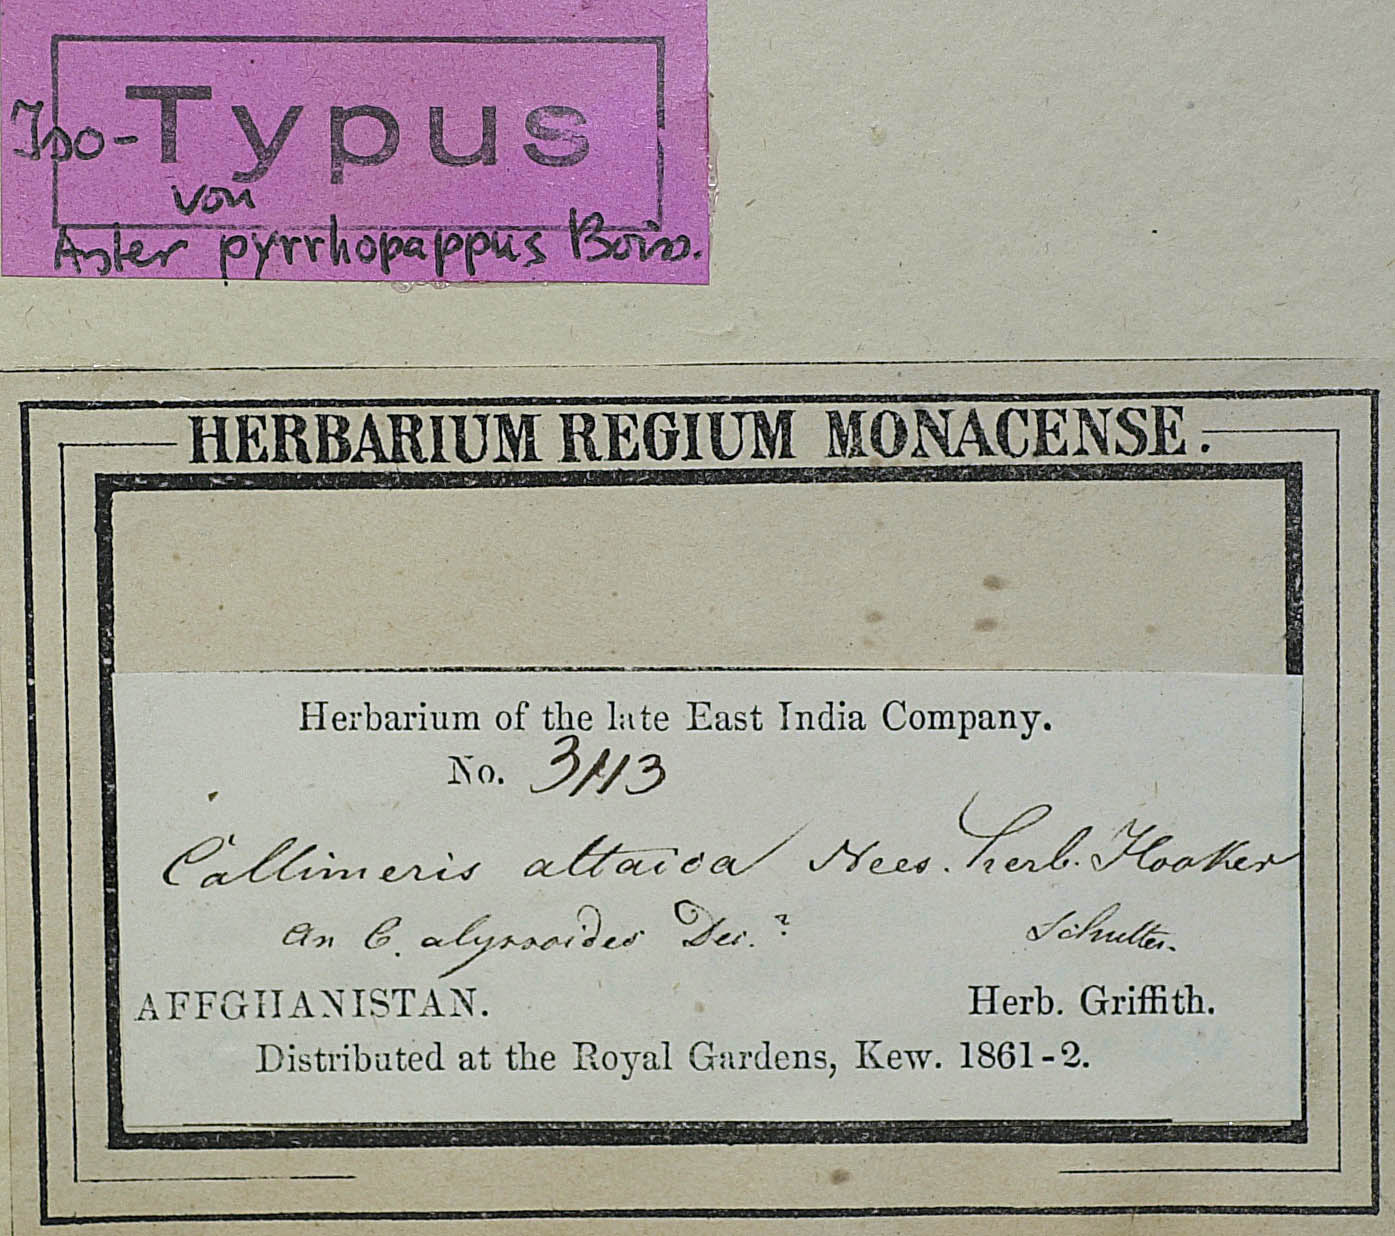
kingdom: Plantae
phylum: Tracheophyta
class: Magnoliopsida
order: Asterales
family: Asteraceae
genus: Heteropappus
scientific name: Heteropappus altaicus
